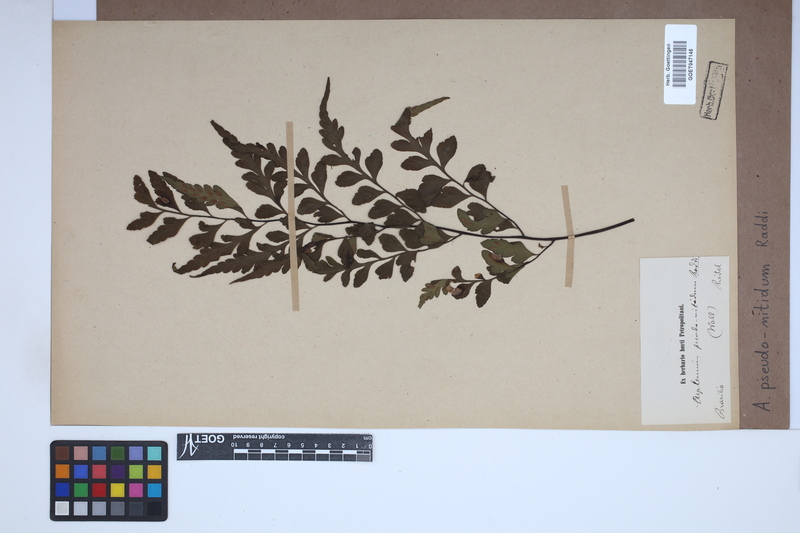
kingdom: Plantae
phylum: Tracheophyta
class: Polypodiopsida
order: Polypodiales
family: Aspleniaceae
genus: Asplenium
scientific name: Asplenium pseudonitidum
